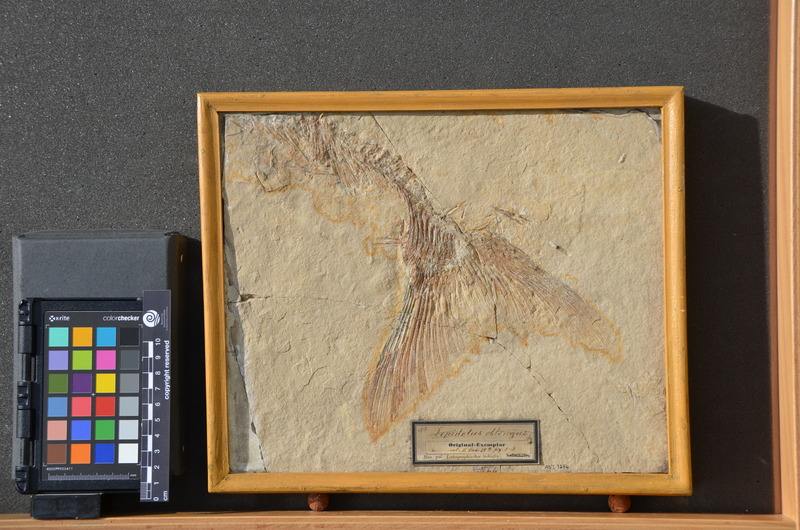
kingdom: Animalia
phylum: Chordata
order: Amiiformes
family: Caturidae
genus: Caturus
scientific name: Caturus furcatus
